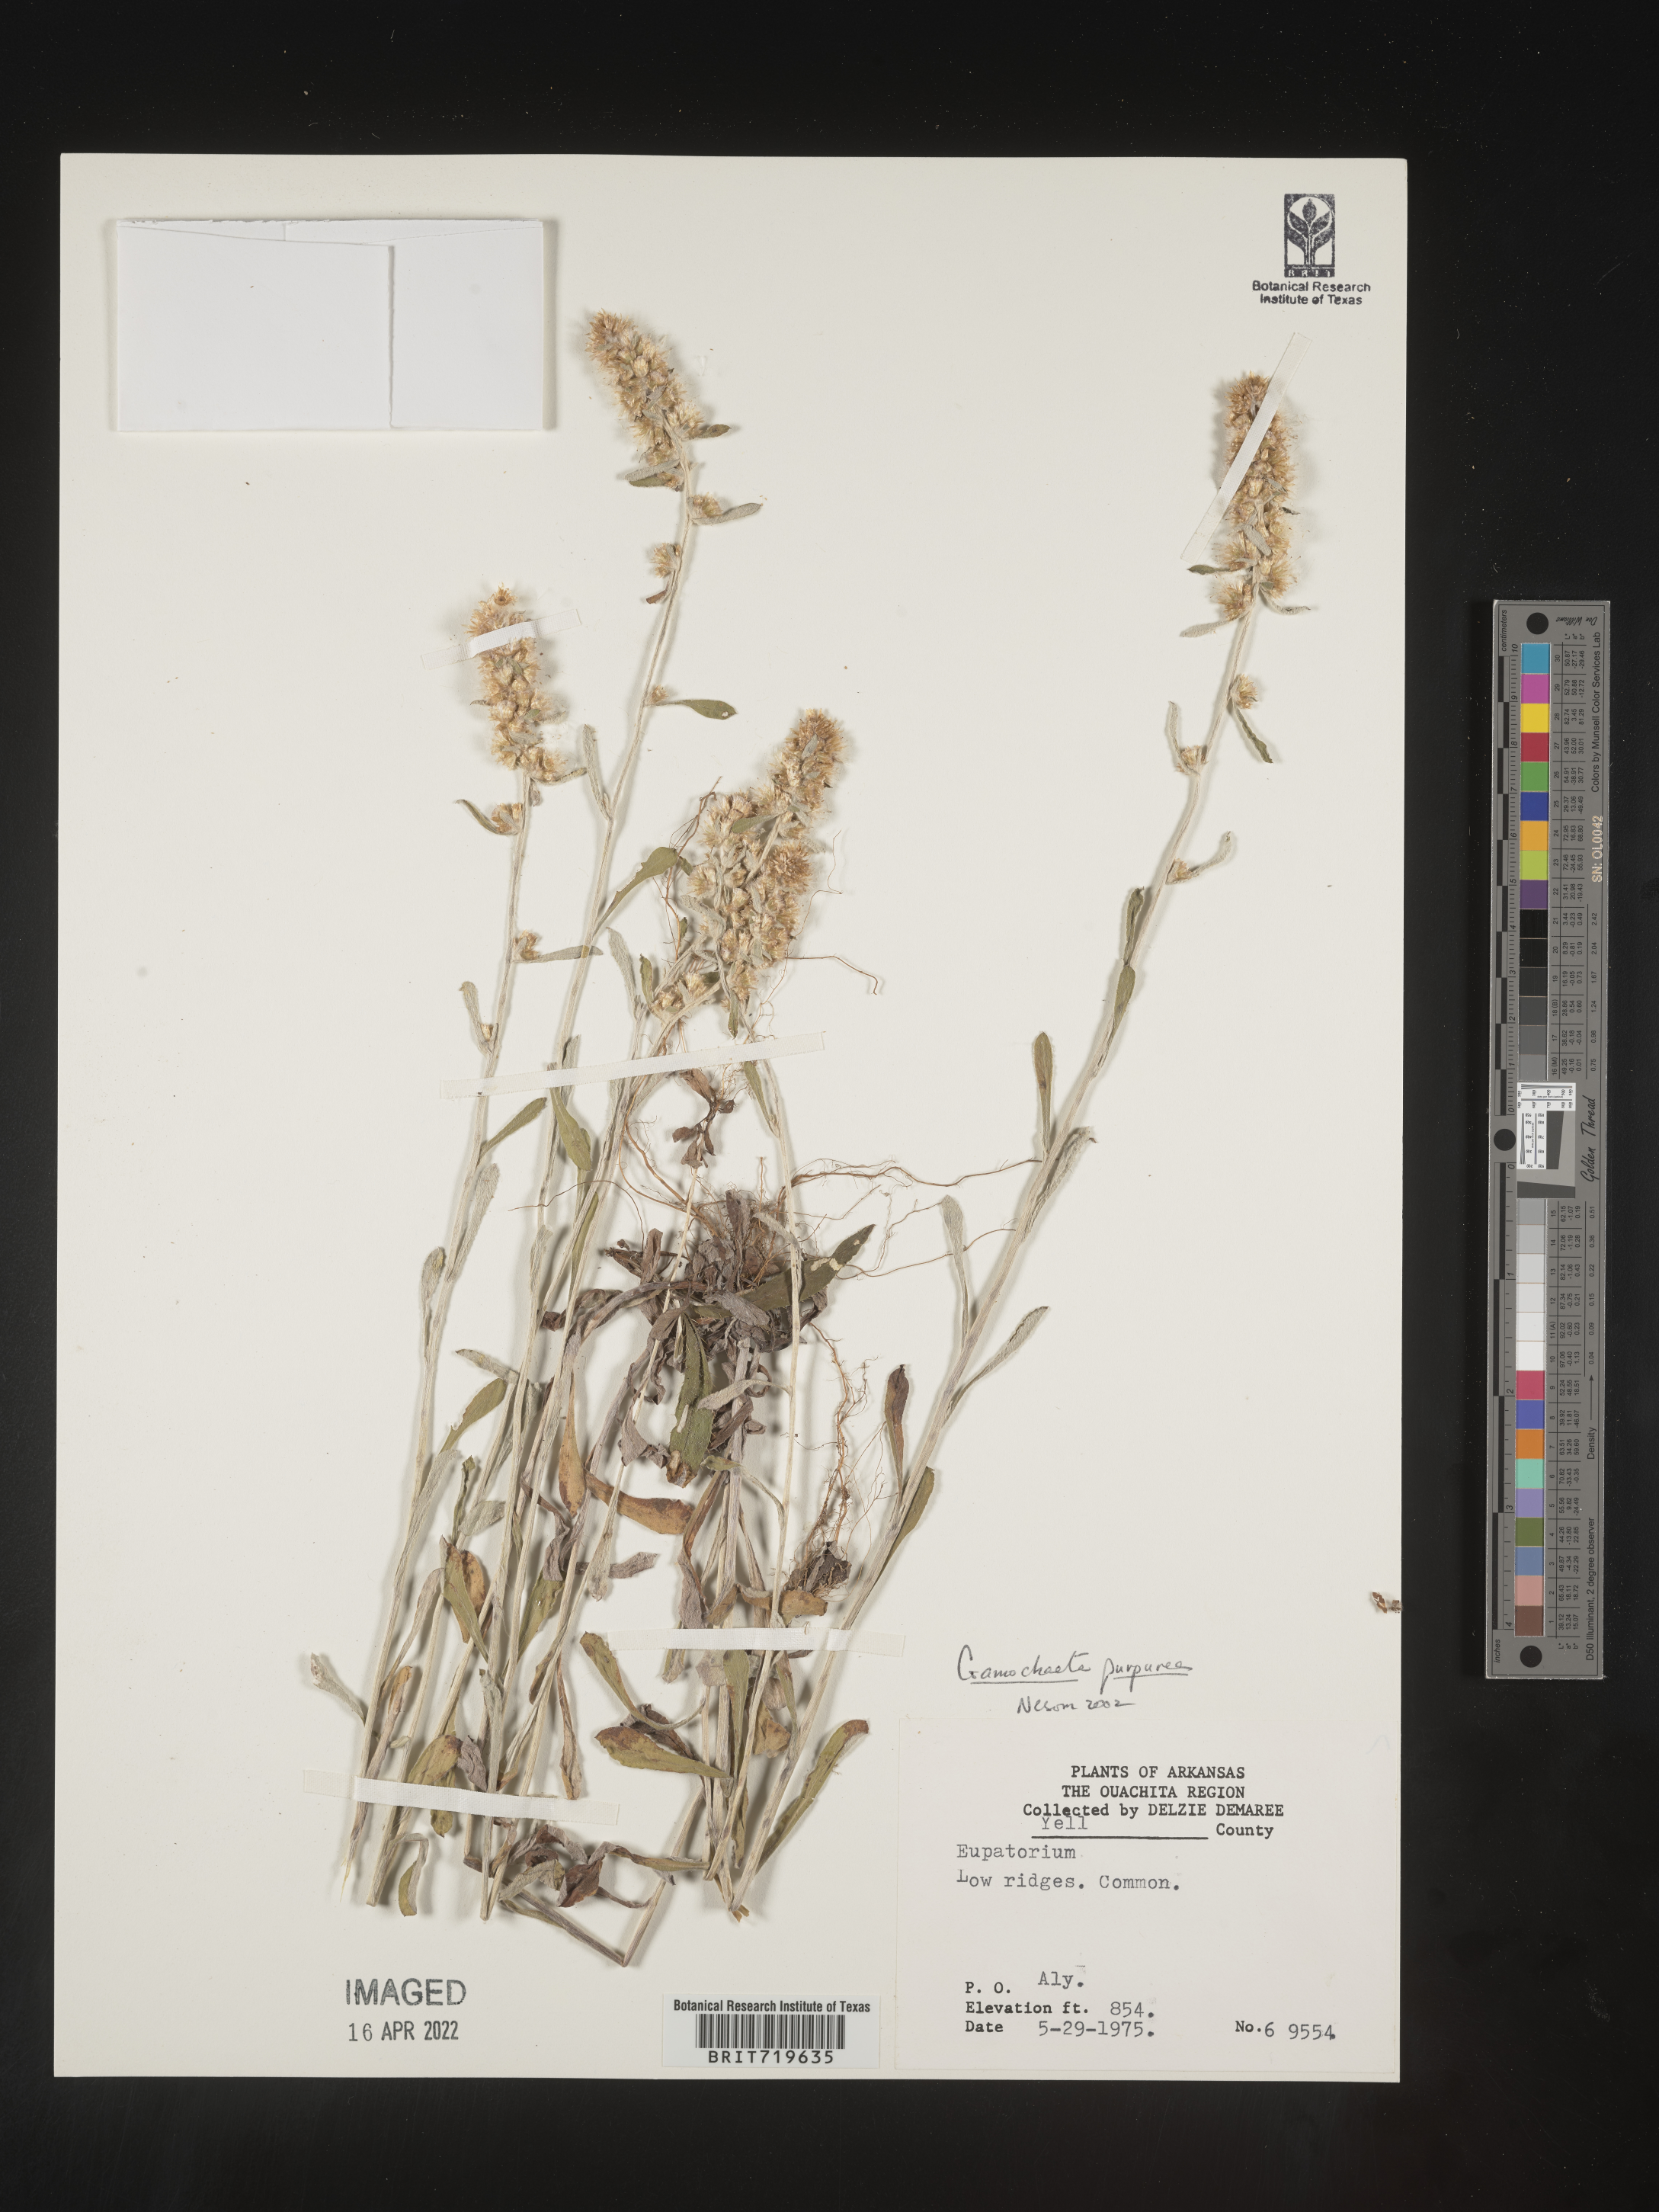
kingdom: Plantae
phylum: Tracheophyta
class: Magnoliopsida
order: Asterales
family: Asteraceae
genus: Gamochaeta
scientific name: Gamochaeta purpurea
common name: Purple cudweed
